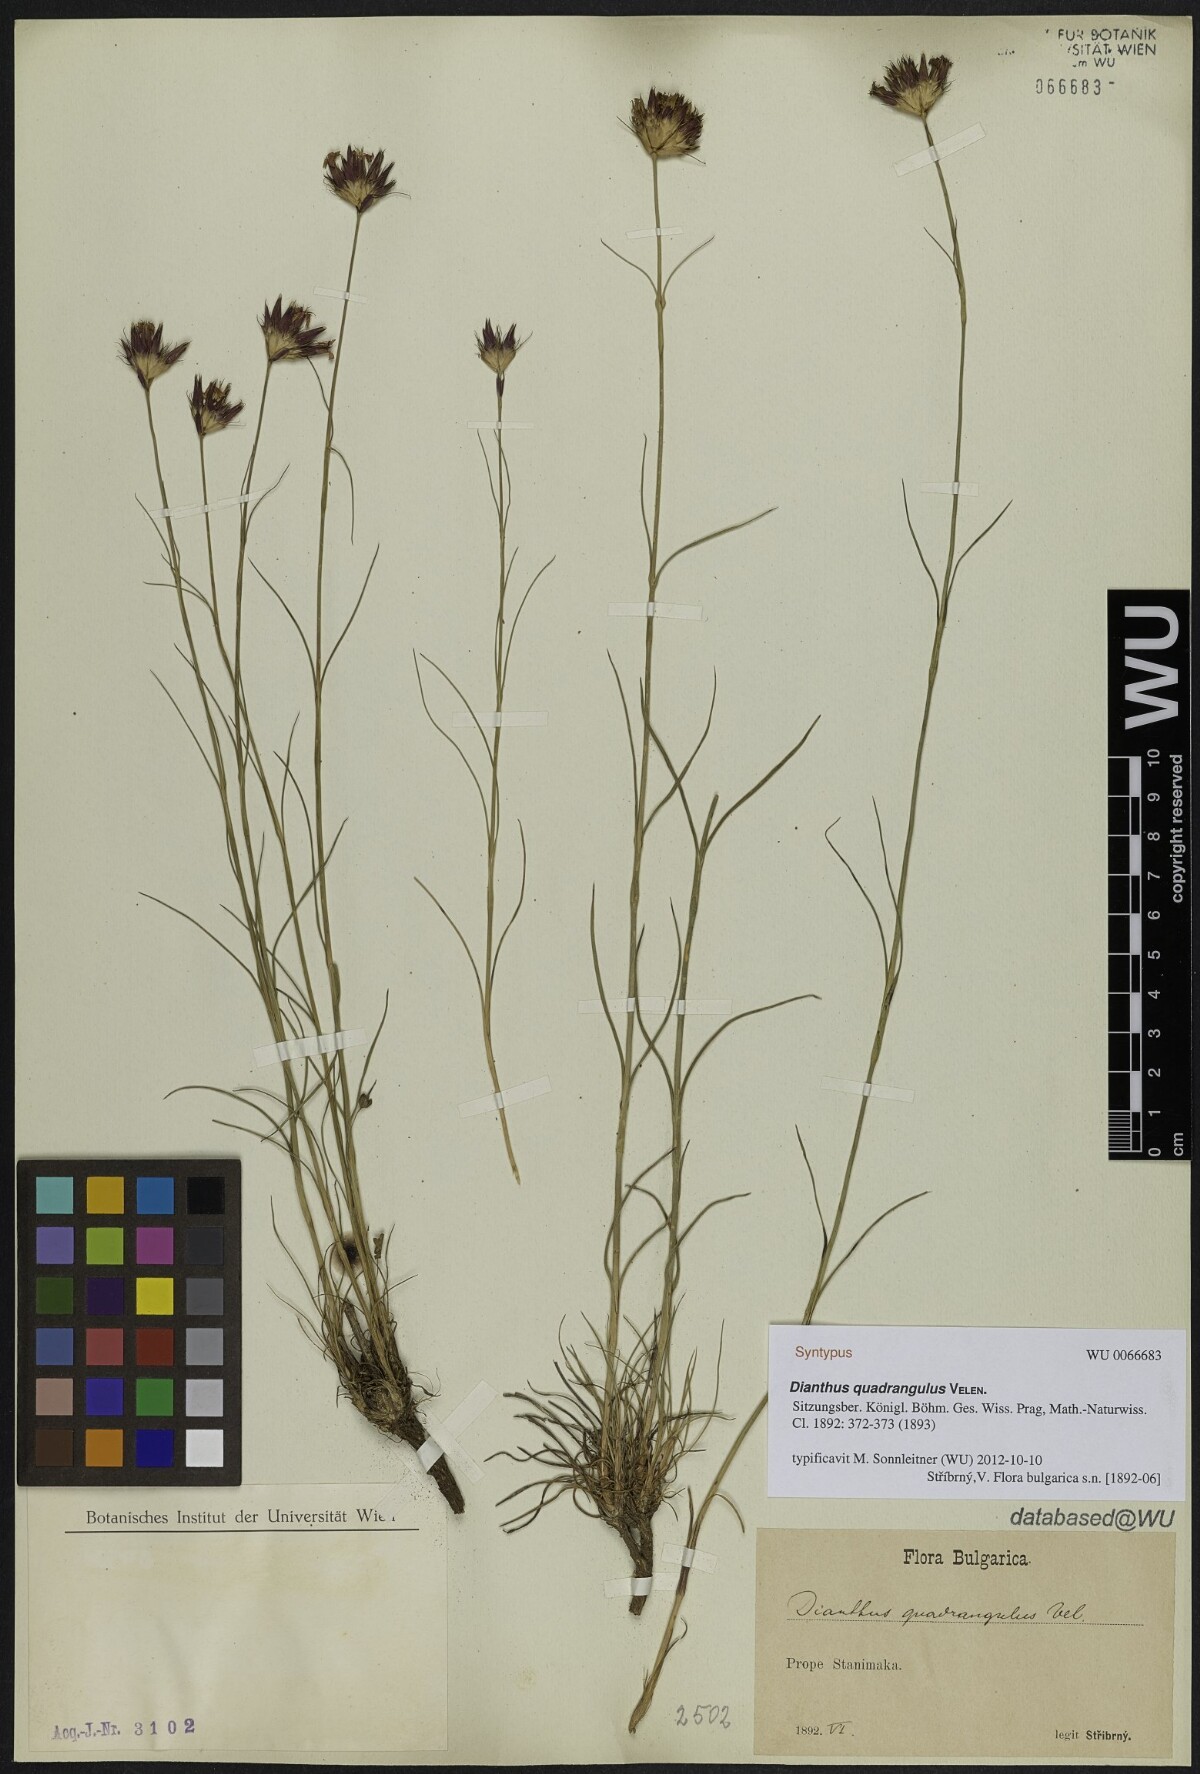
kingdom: Plantae
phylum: Tracheophyta
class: Magnoliopsida
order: Caryophyllales
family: Caryophyllaceae
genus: Dianthus
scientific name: Dianthus cruentus
